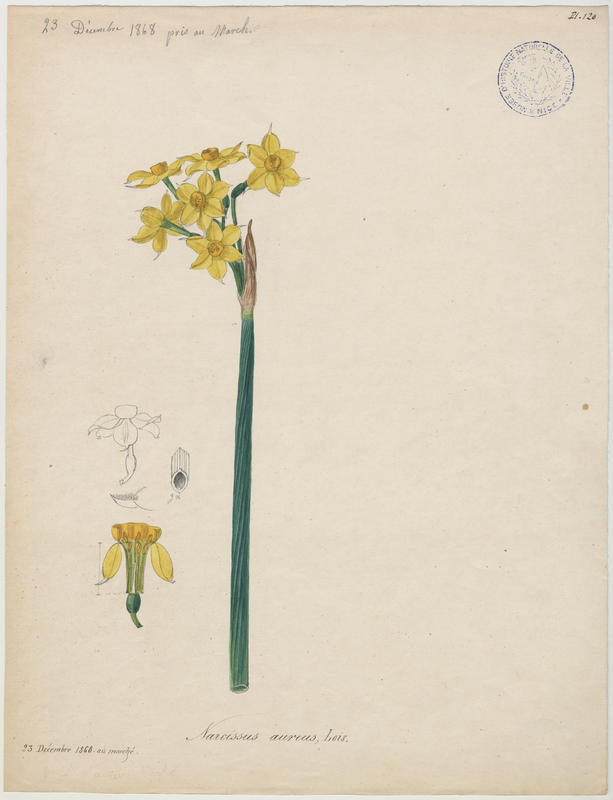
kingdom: Plantae
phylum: Tracheophyta
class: Liliopsida
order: Asparagales
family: Amaryllidaceae
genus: Narcissus
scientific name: Narcissus tazetta
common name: Bunch-flowered daffodil
